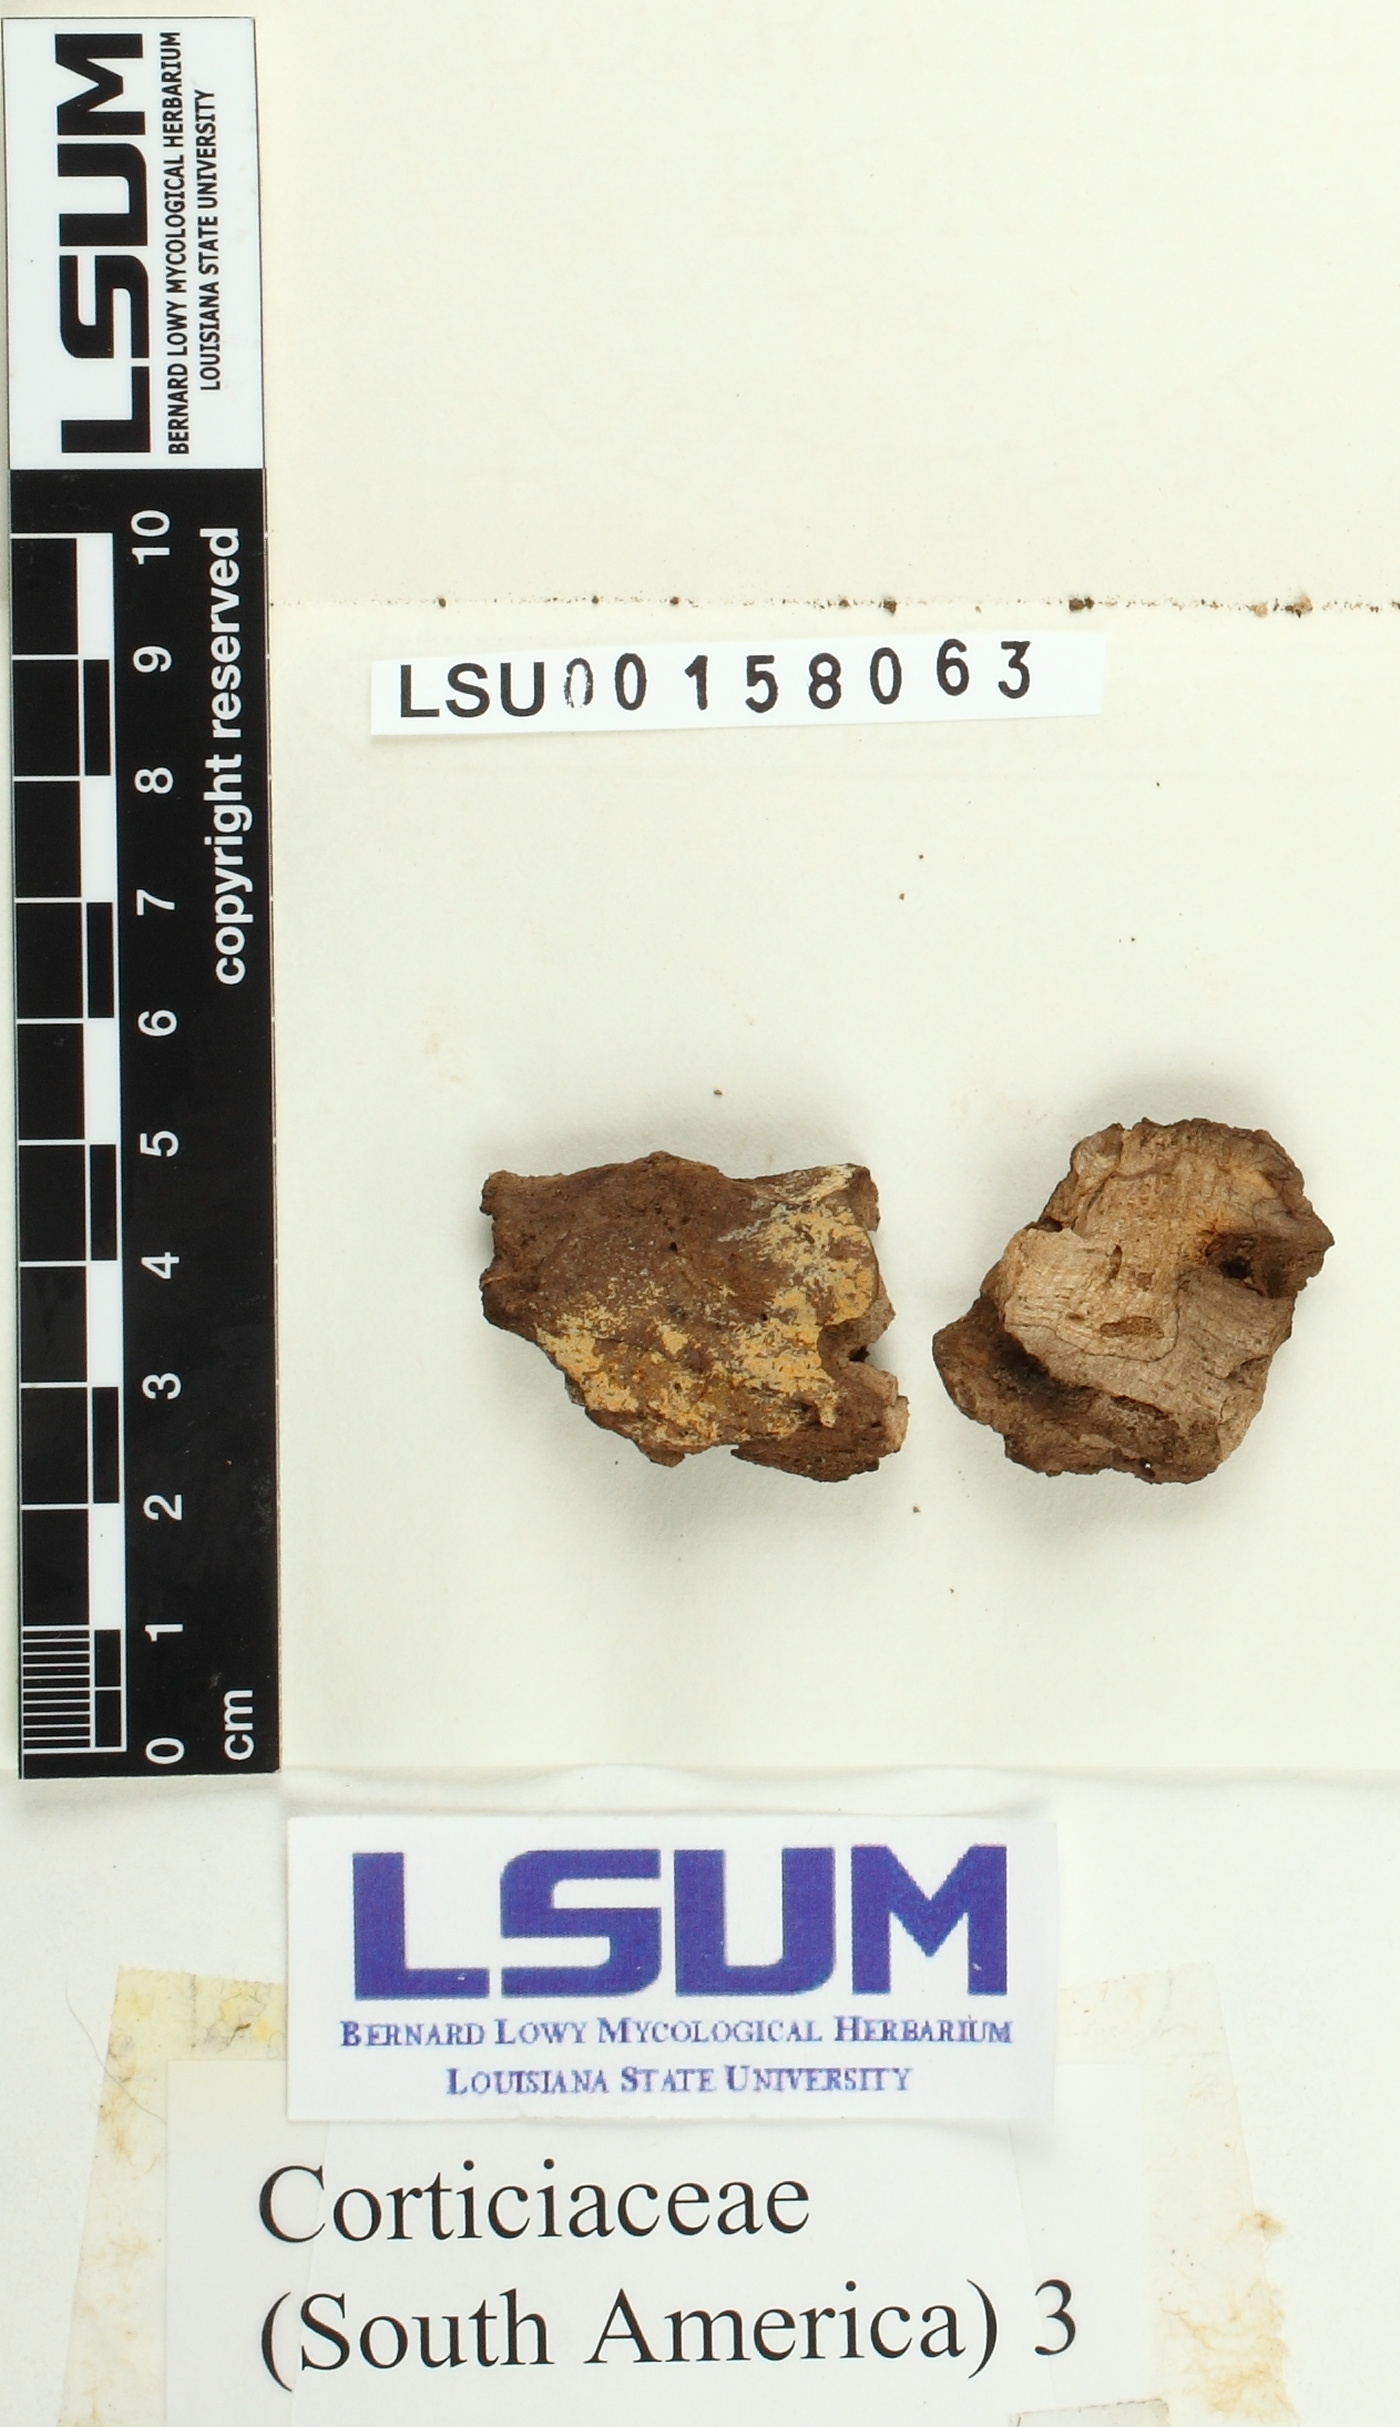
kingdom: Fungi
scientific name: Fungi
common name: Fungi
